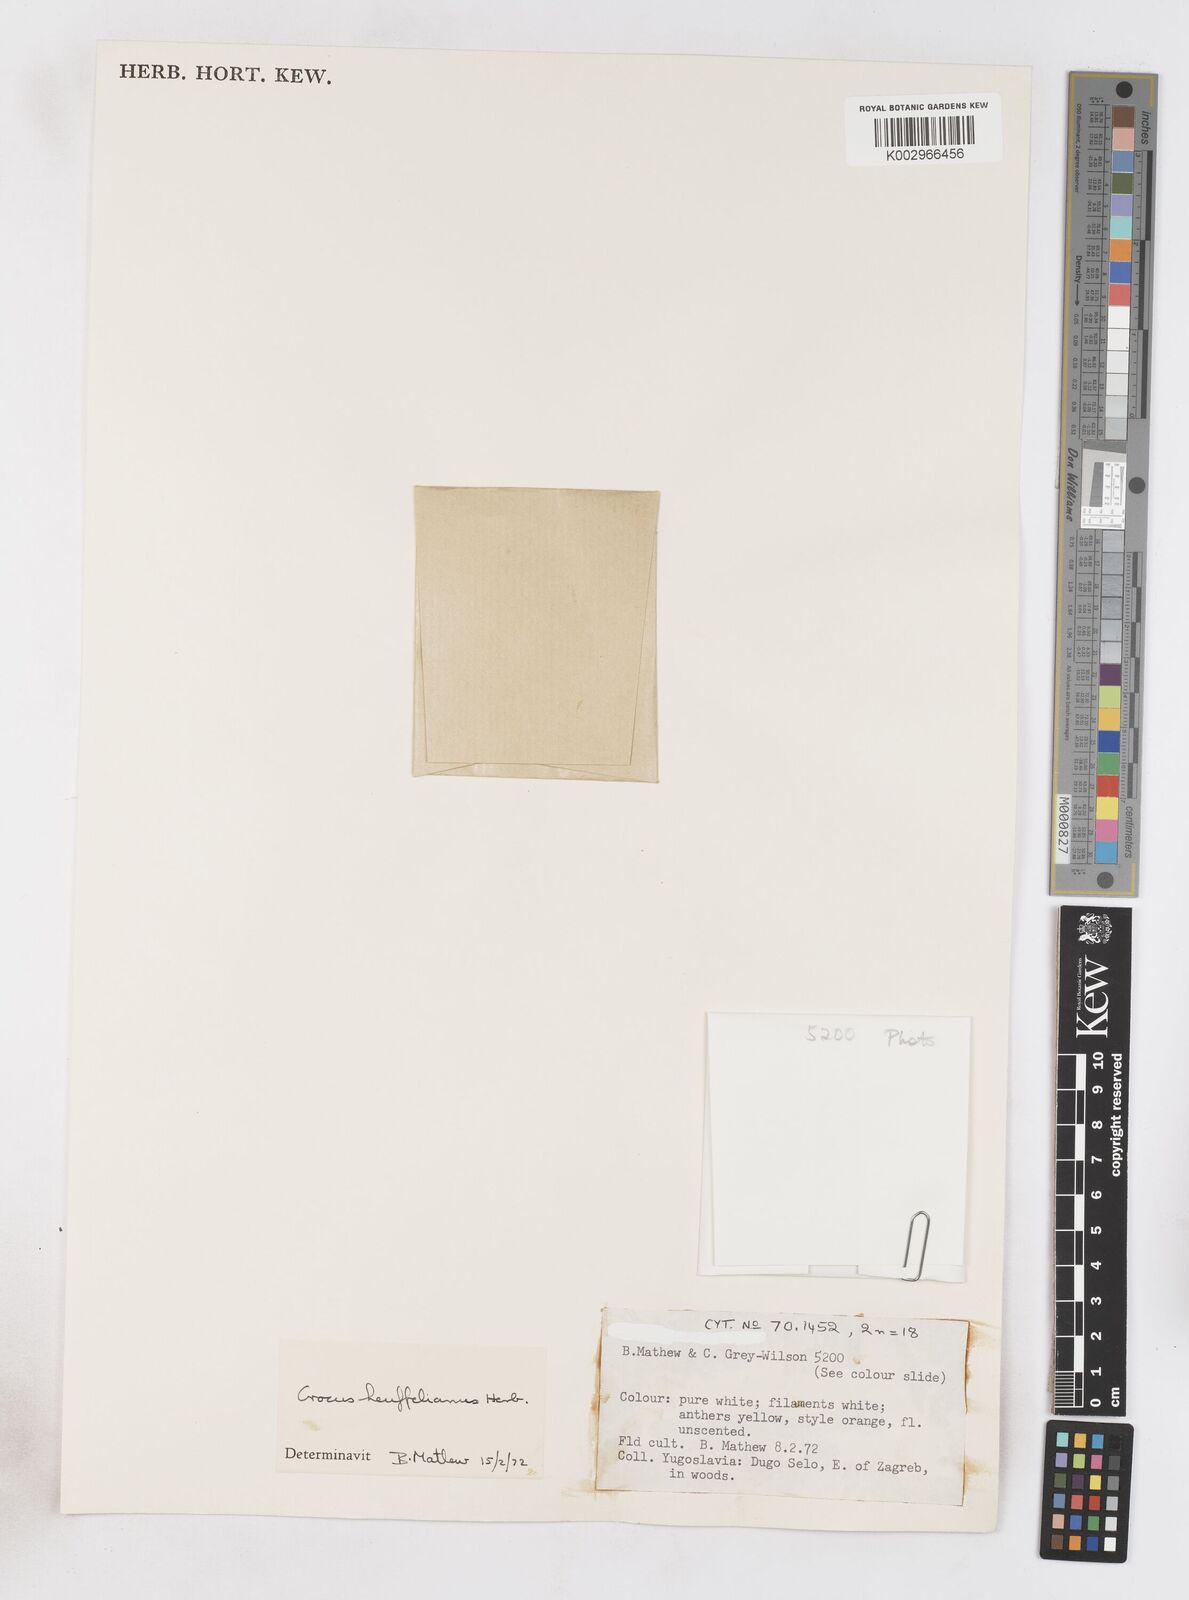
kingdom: Plantae
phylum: Tracheophyta
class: Liliopsida
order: Asparagales
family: Iridaceae
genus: Crocus
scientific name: Crocus vernus
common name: Spring crocus
